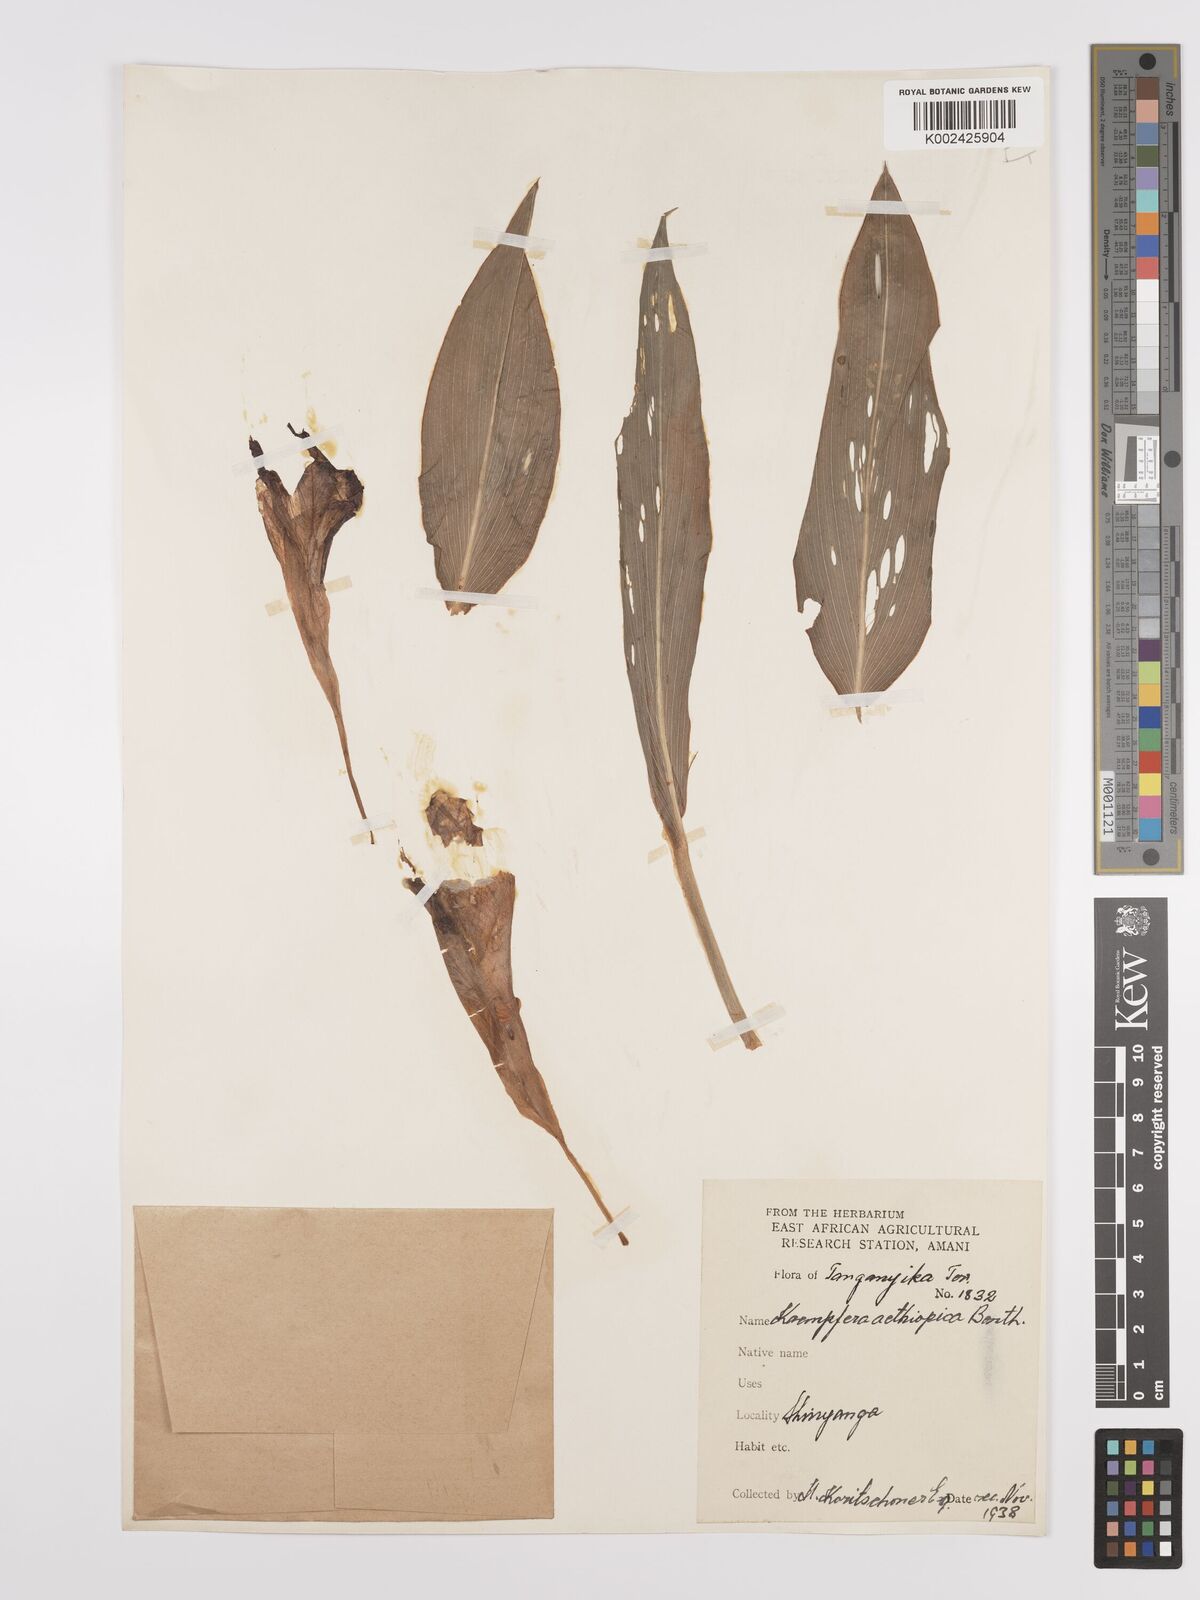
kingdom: Plantae
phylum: Tracheophyta
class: Liliopsida
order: Zingiberales
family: Zingiberaceae
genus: Siphonochilus
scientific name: Siphonochilus aethiopicus
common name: African-ginger
